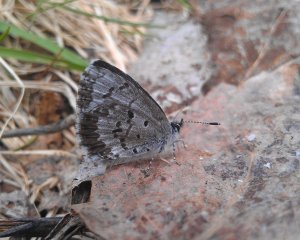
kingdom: Animalia
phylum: Arthropoda
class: Insecta
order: Lepidoptera
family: Lycaenidae
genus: Celastrina
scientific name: Celastrina lucia
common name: Northern Spring Azure
